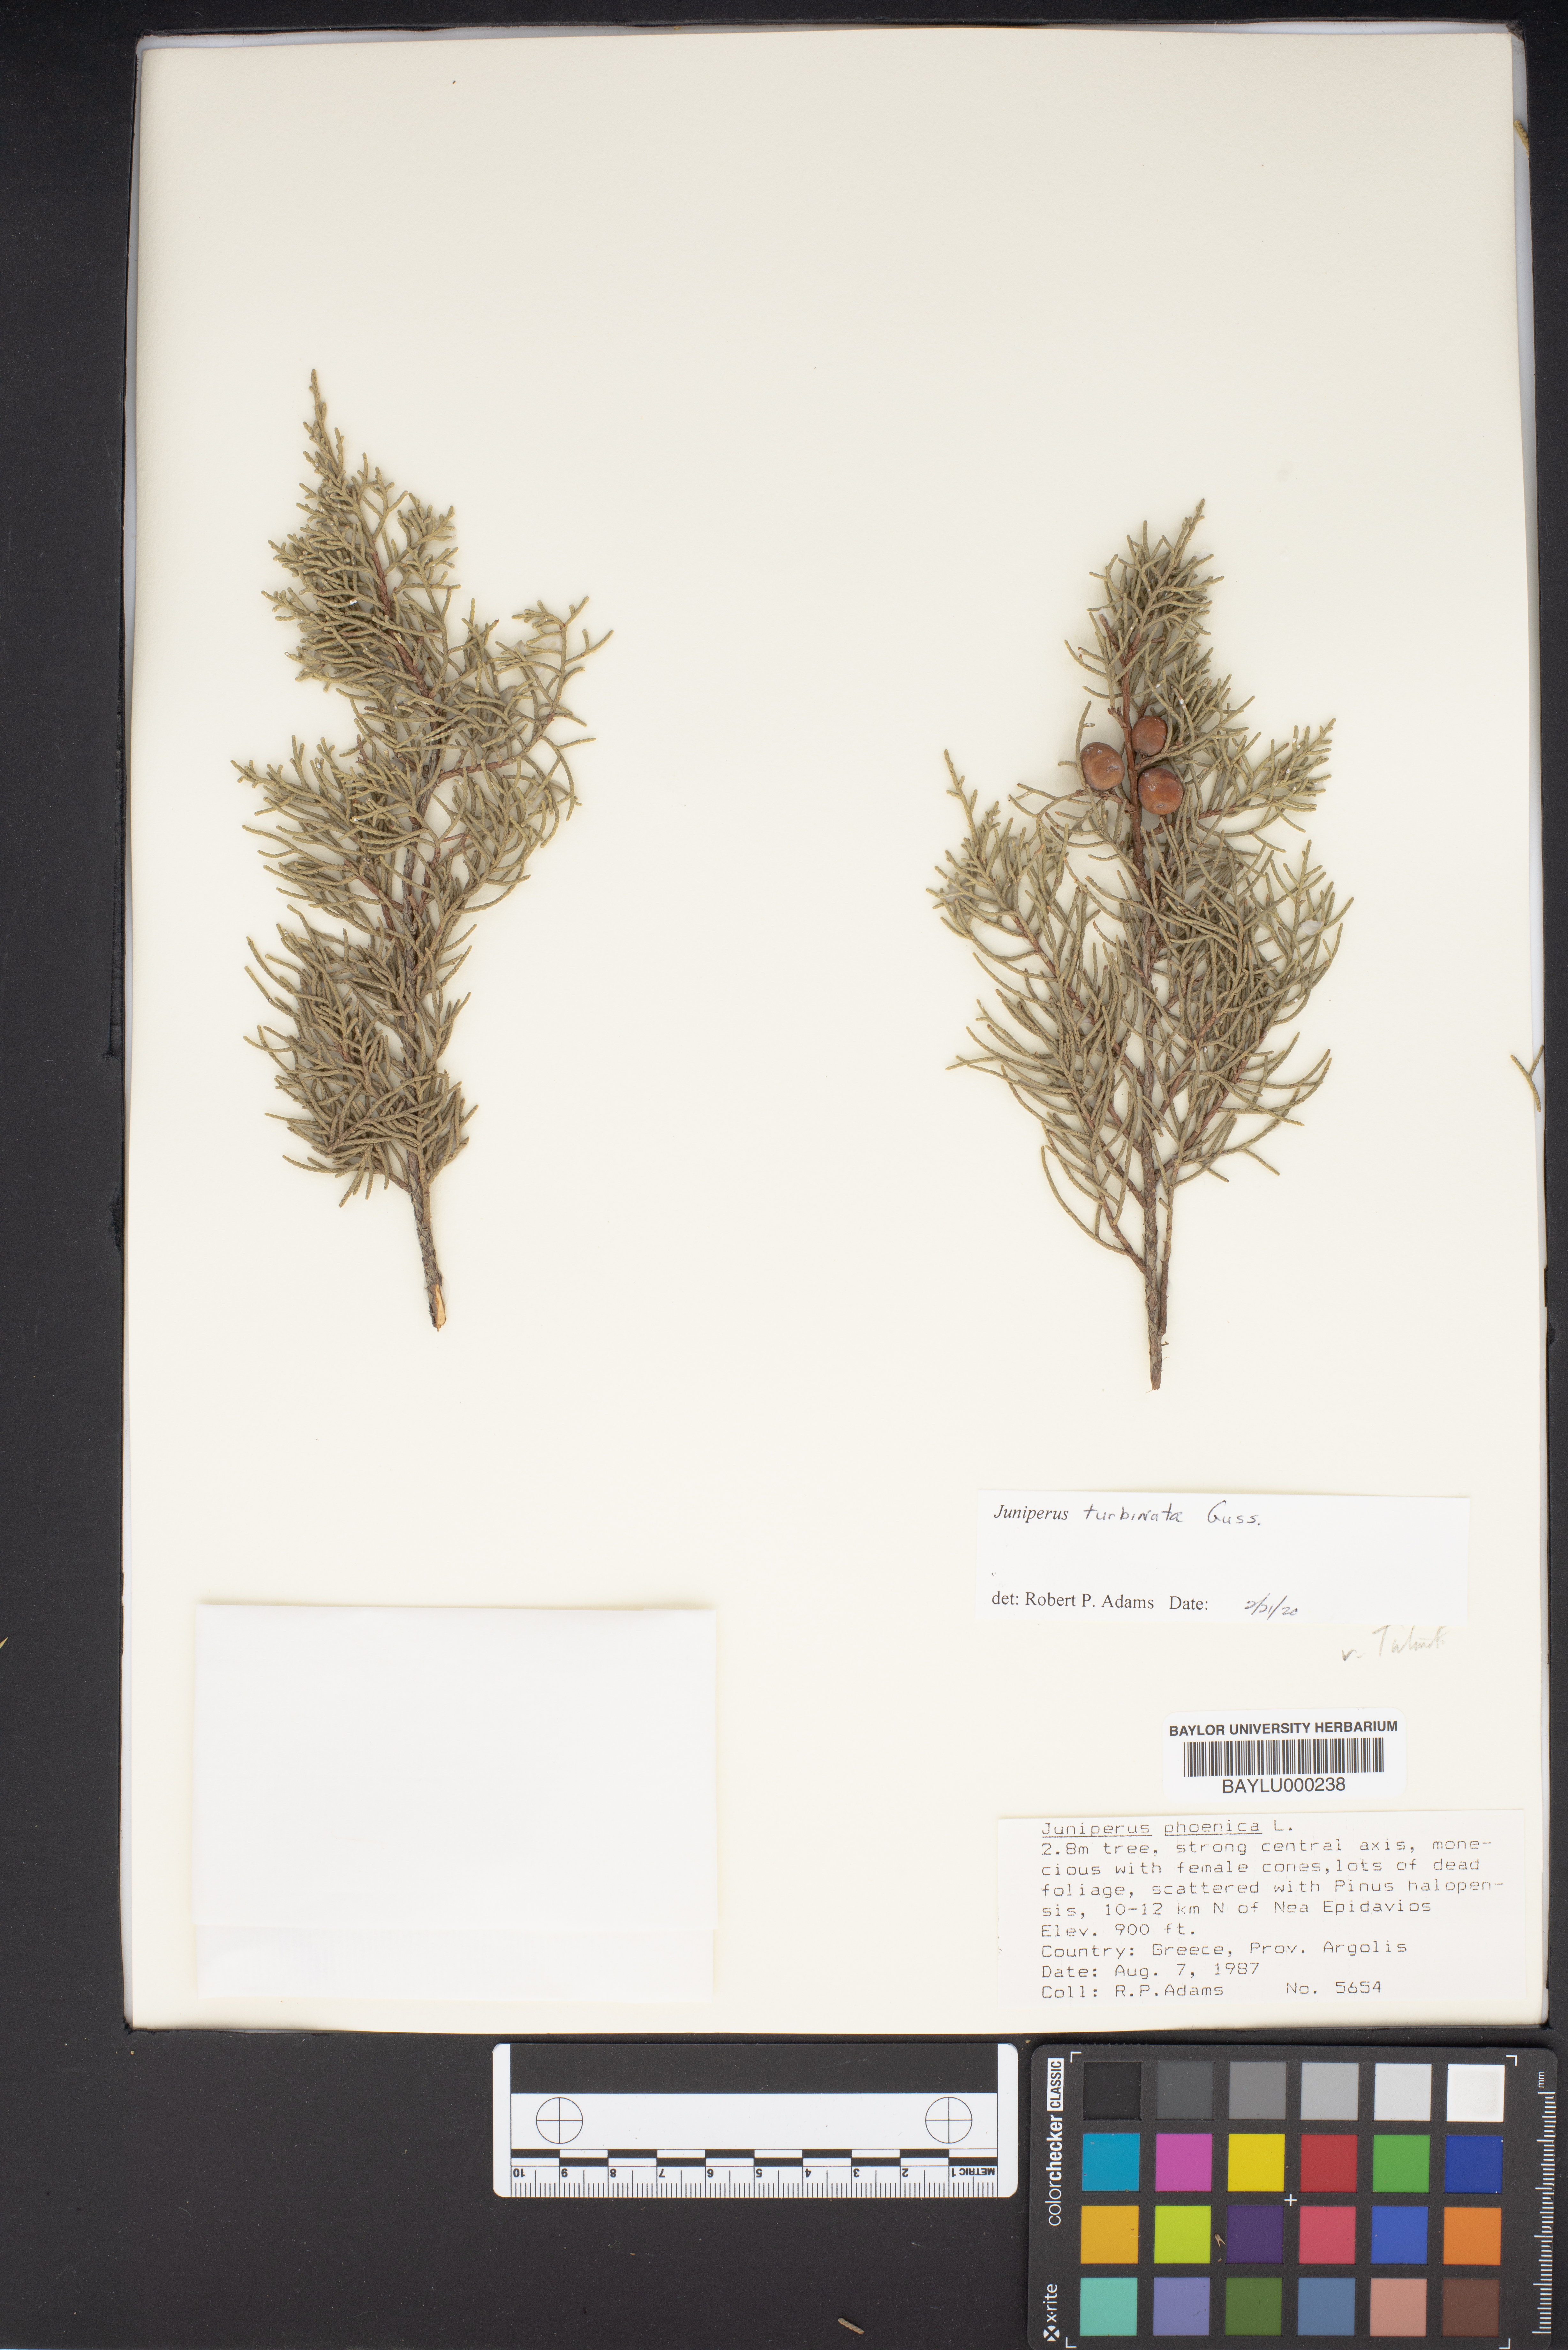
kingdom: Plantae
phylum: Tracheophyta
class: Pinopsida
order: Pinales
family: Cupressaceae
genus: Juniperus
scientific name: Juniperus phoenicea
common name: Phoenician juniper
